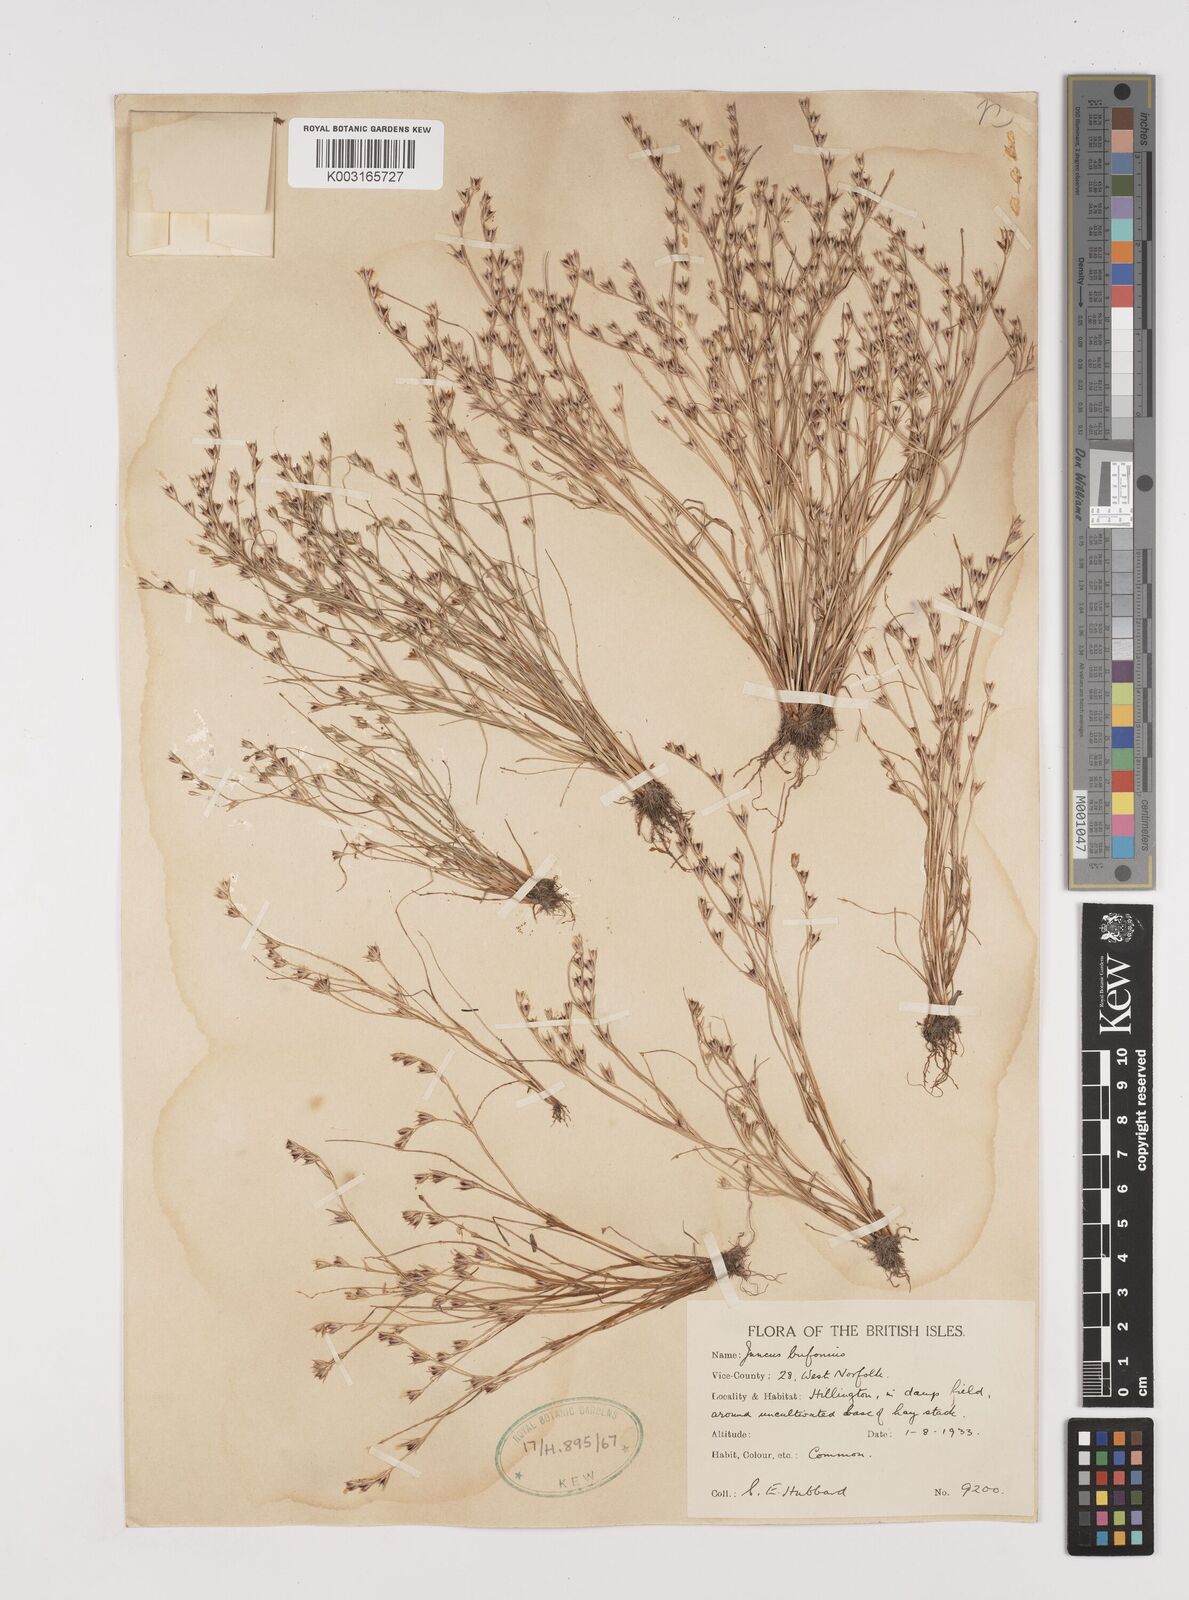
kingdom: Plantae
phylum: Tracheophyta
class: Liliopsida
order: Poales
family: Juncaceae
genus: Juncus
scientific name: Juncus bufonius
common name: Toad rush
